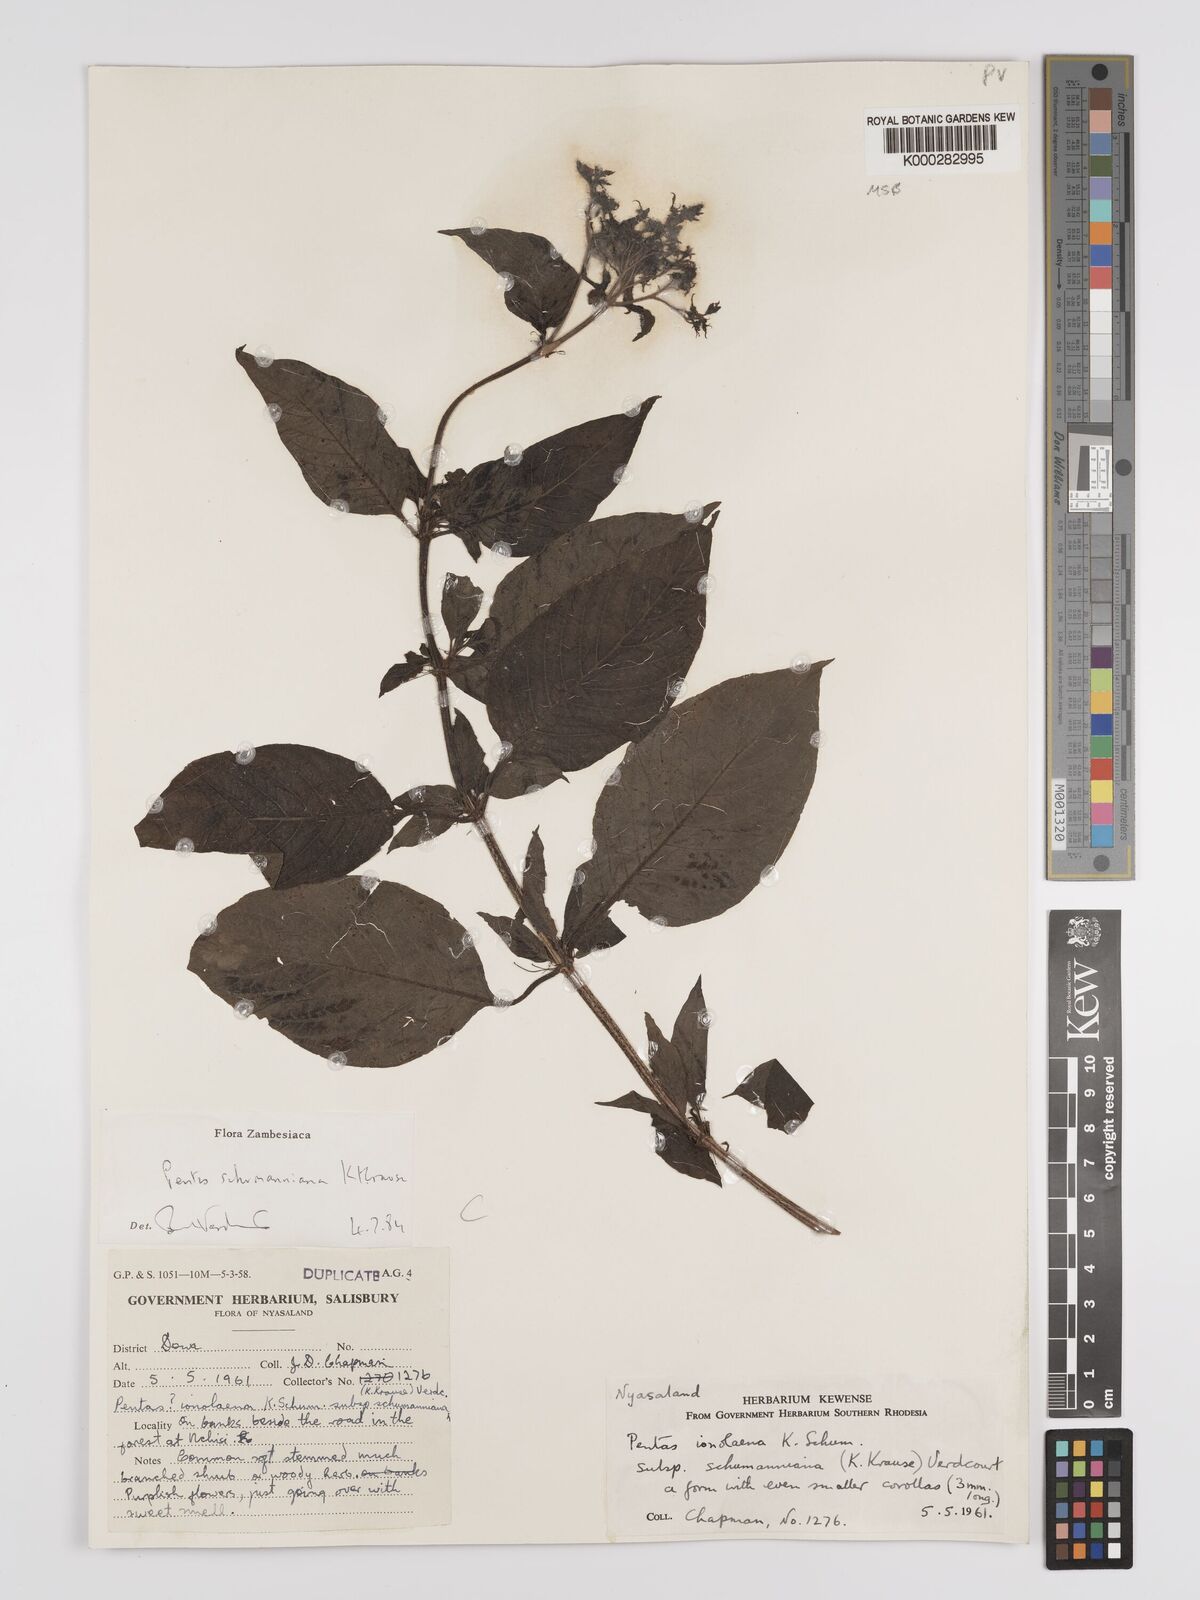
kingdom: Plantae
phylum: Tracheophyta
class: Magnoliopsida
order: Gentianales
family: Rubiaceae
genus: Phyllopentas
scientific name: Phyllopentas schumanniana
